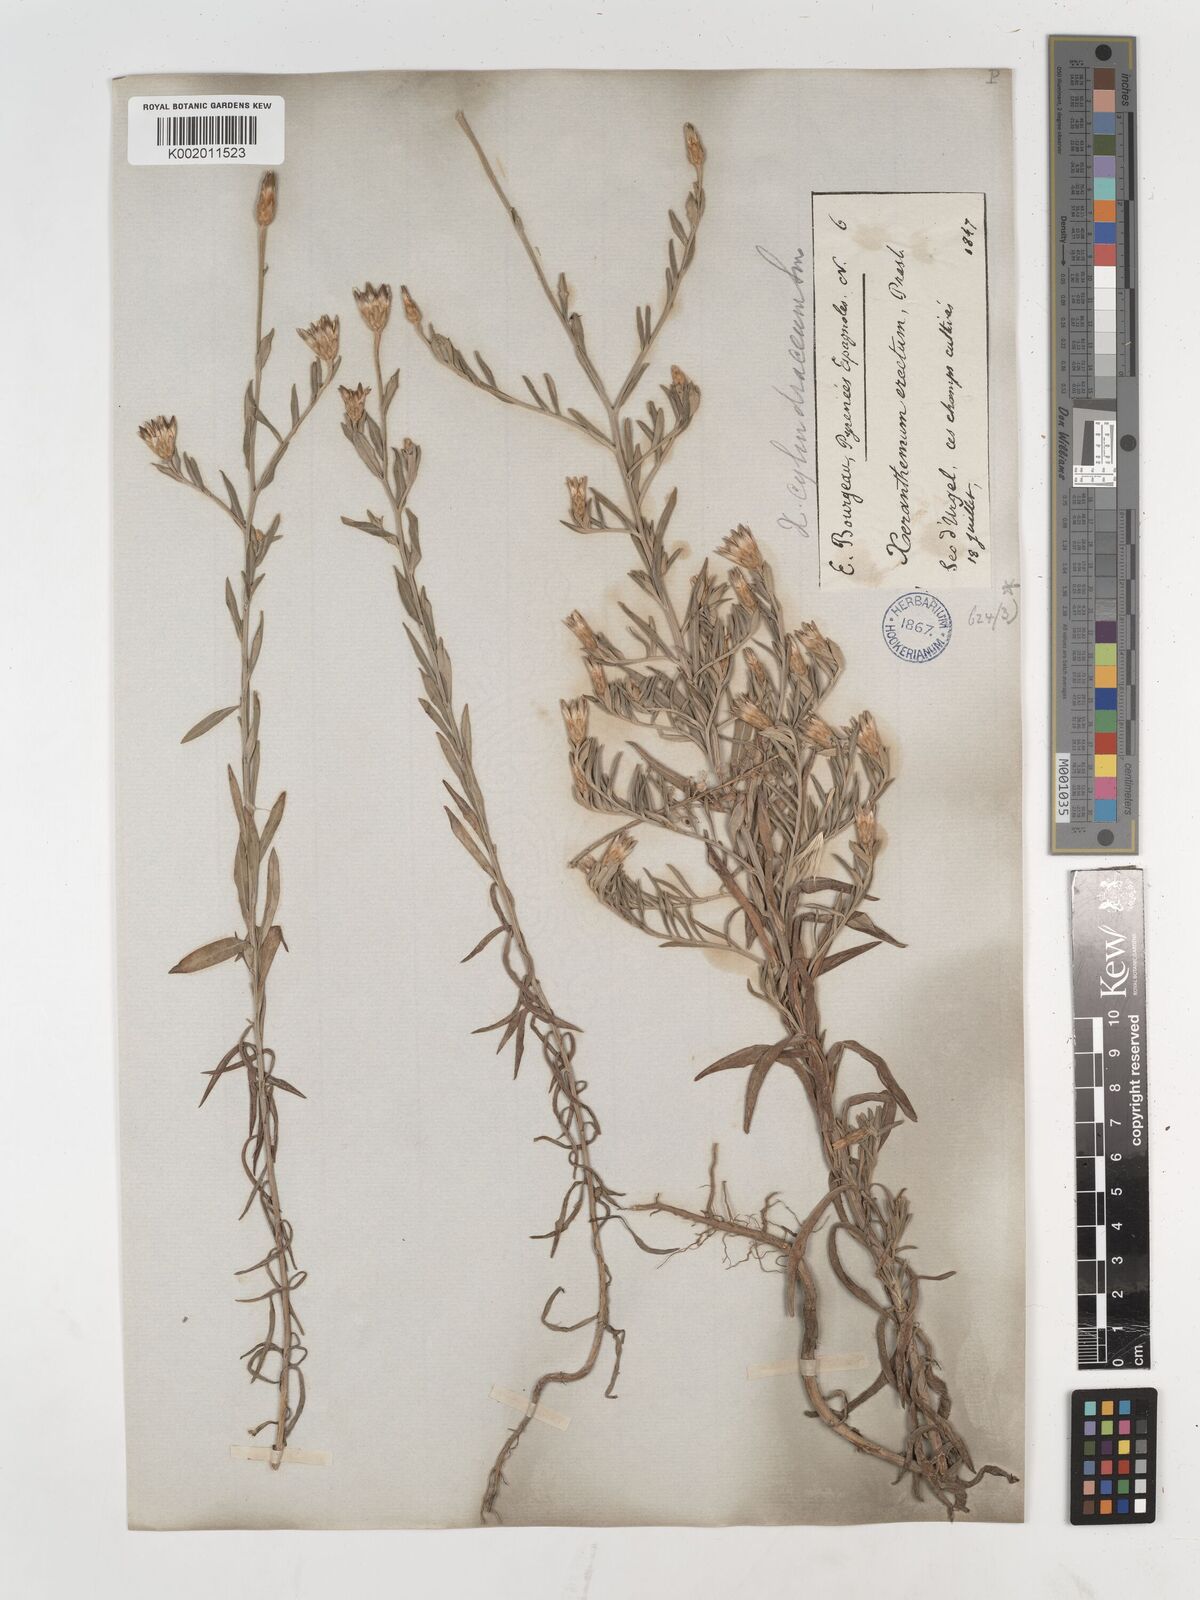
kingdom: Plantae
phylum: Tracheophyta
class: Magnoliopsida
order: Asterales
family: Asteraceae
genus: Xeranthemum
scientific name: Xeranthemum cylindraceum
